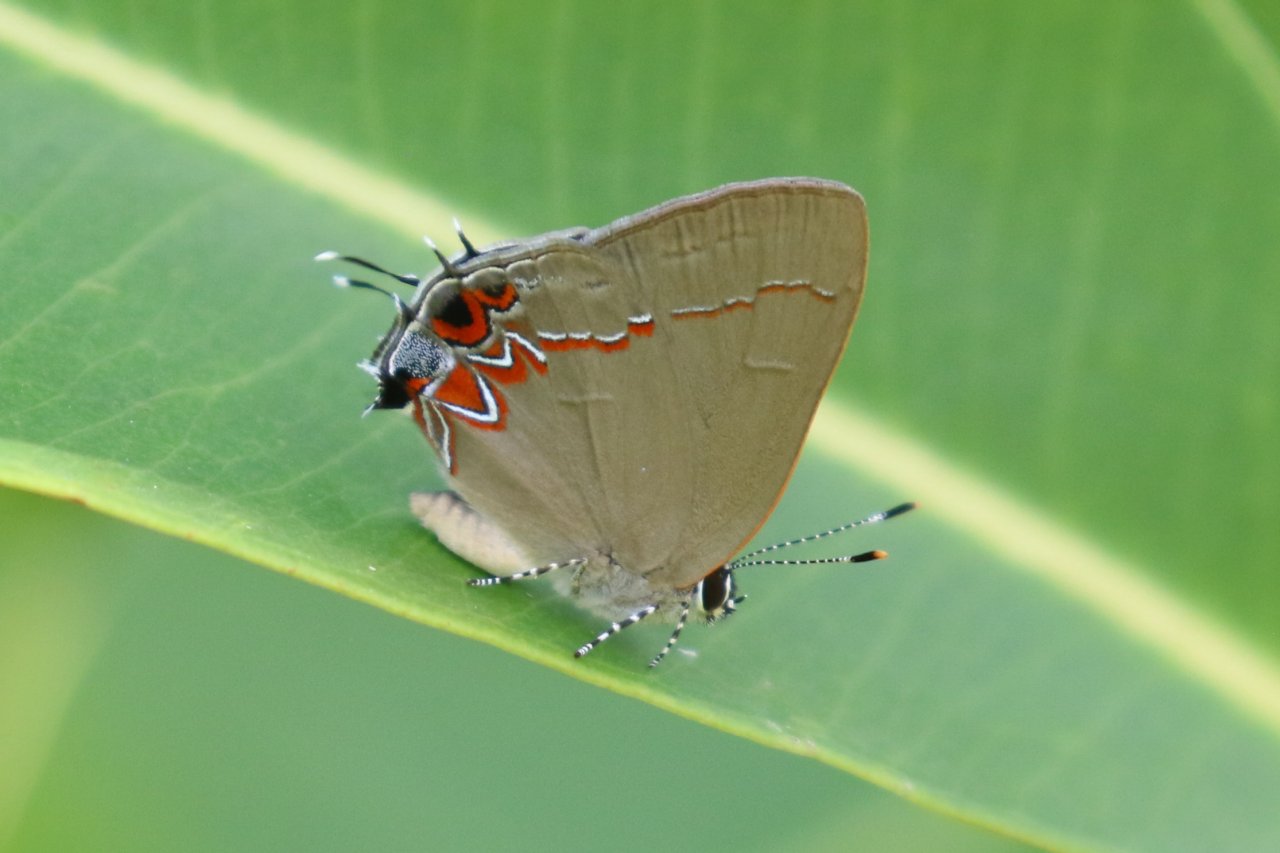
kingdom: Animalia
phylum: Arthropoda
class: Insecta
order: Lepidoptera
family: Lycaenidae
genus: Calycopis
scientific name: Calycopis isobeon
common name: Dusky-blue Groundstreak
